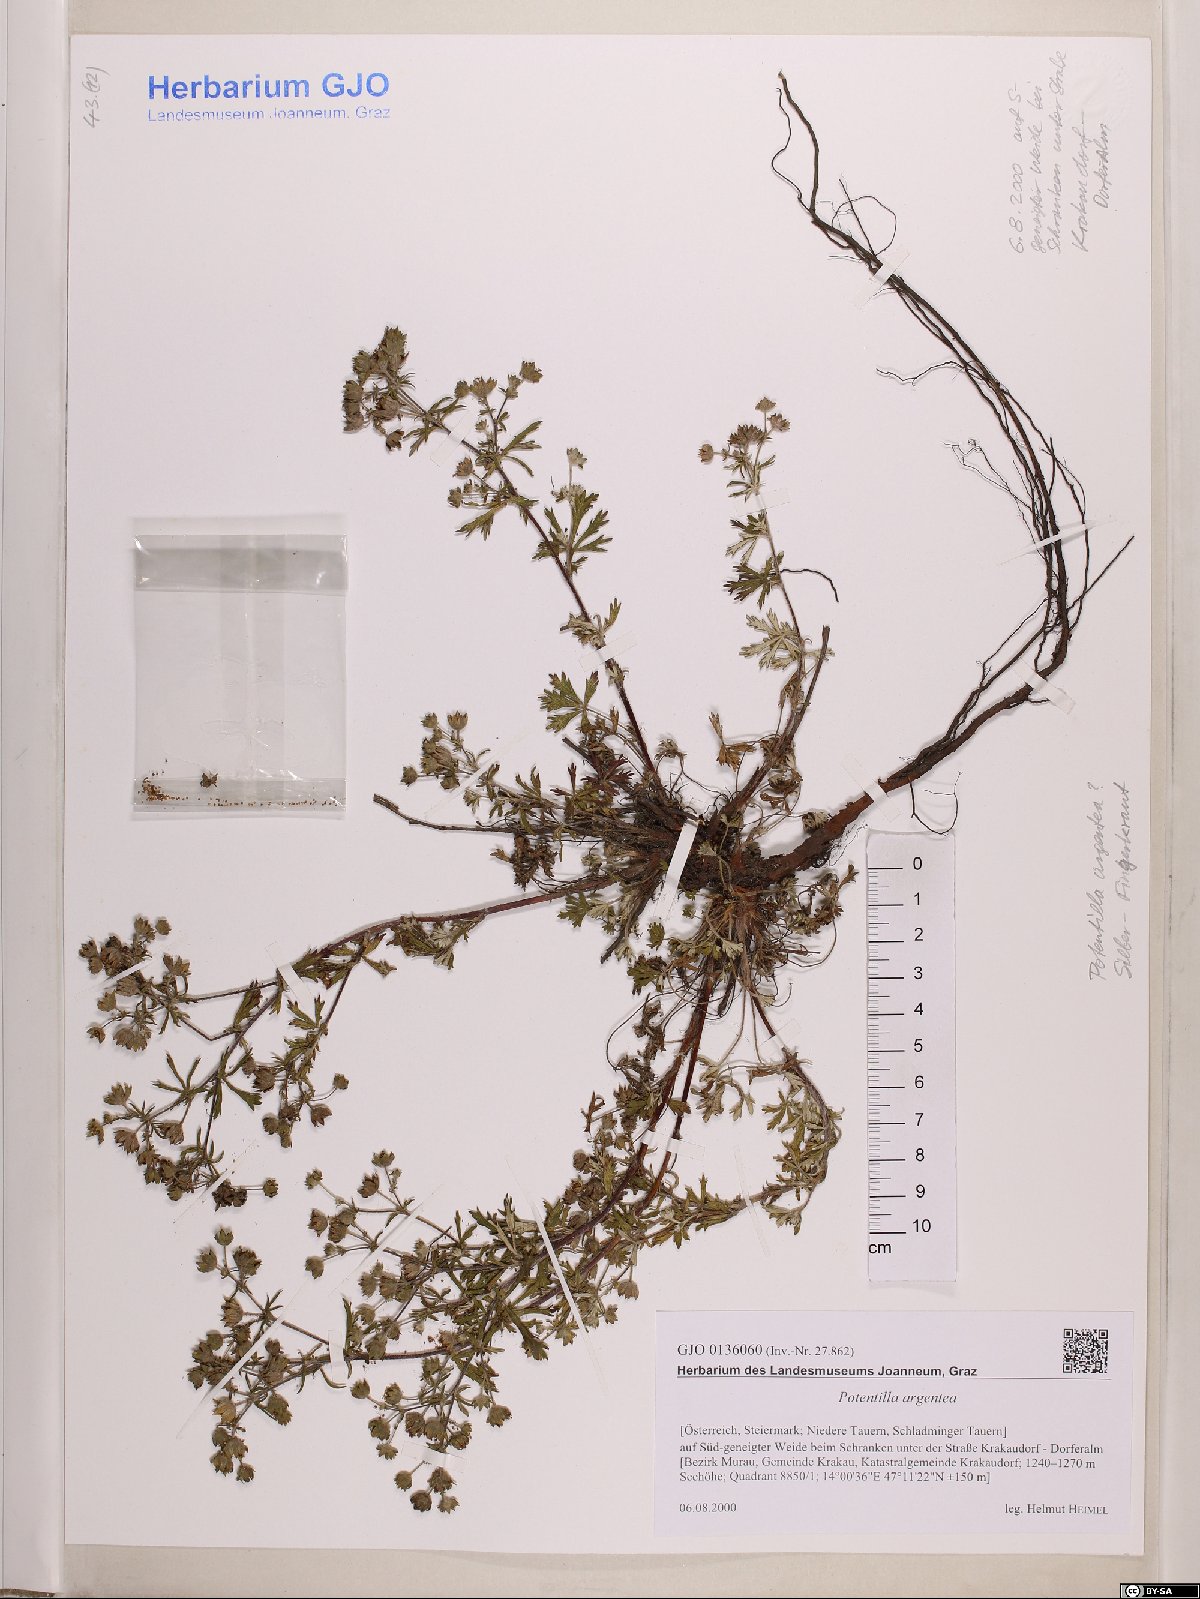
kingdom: Plantae
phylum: Tracheophyta
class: Magnoliopsida
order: Rosales
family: Rosaceae
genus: Potentilla
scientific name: Potentilla argentea
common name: Hoary cinquefoil
